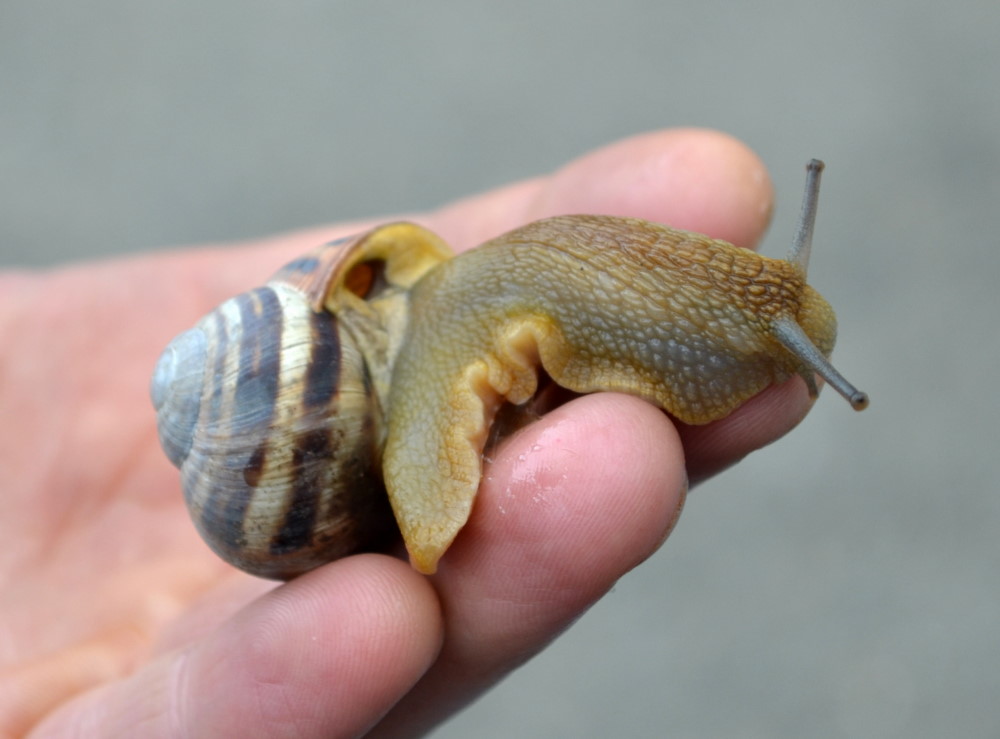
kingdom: Animalia
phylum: Mollusca
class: Gastropoda
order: Stylommatophora
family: Helicidae
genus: Helix
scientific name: Helix pomatia
